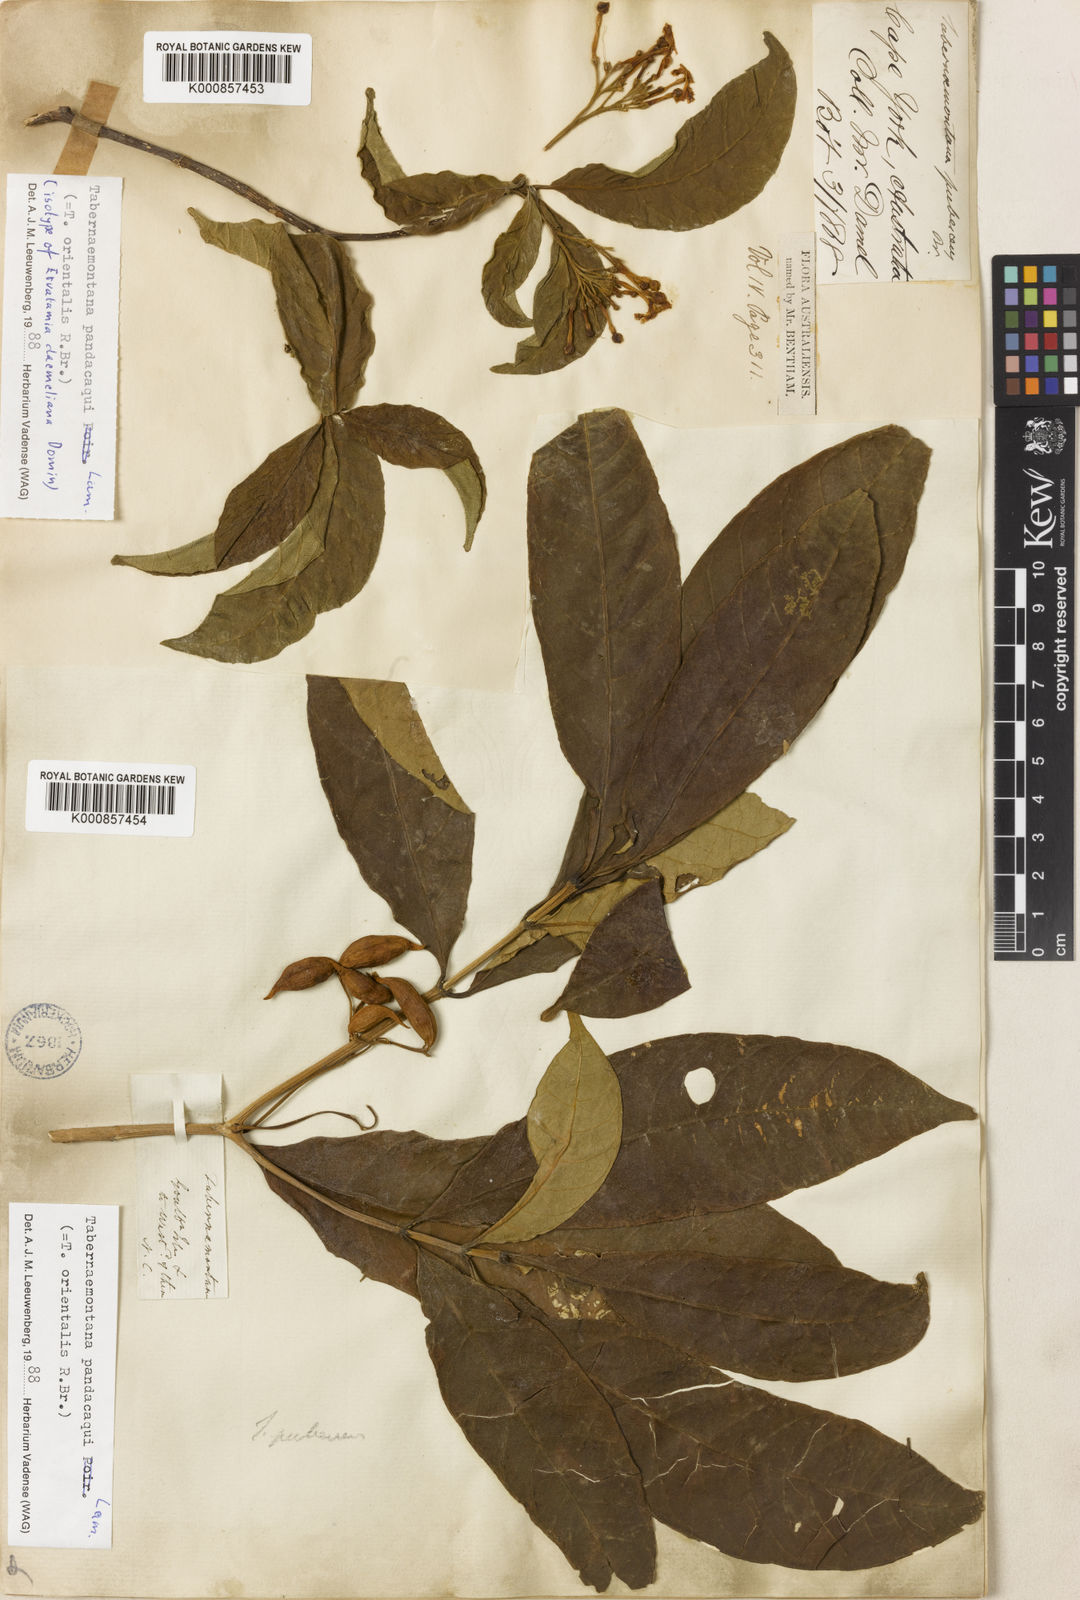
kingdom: Plantae
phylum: Tracheophyta
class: Magnoliopsida
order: Gentianales
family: Apocynaceae
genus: Tabernaemontana
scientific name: Tabernaemontana
